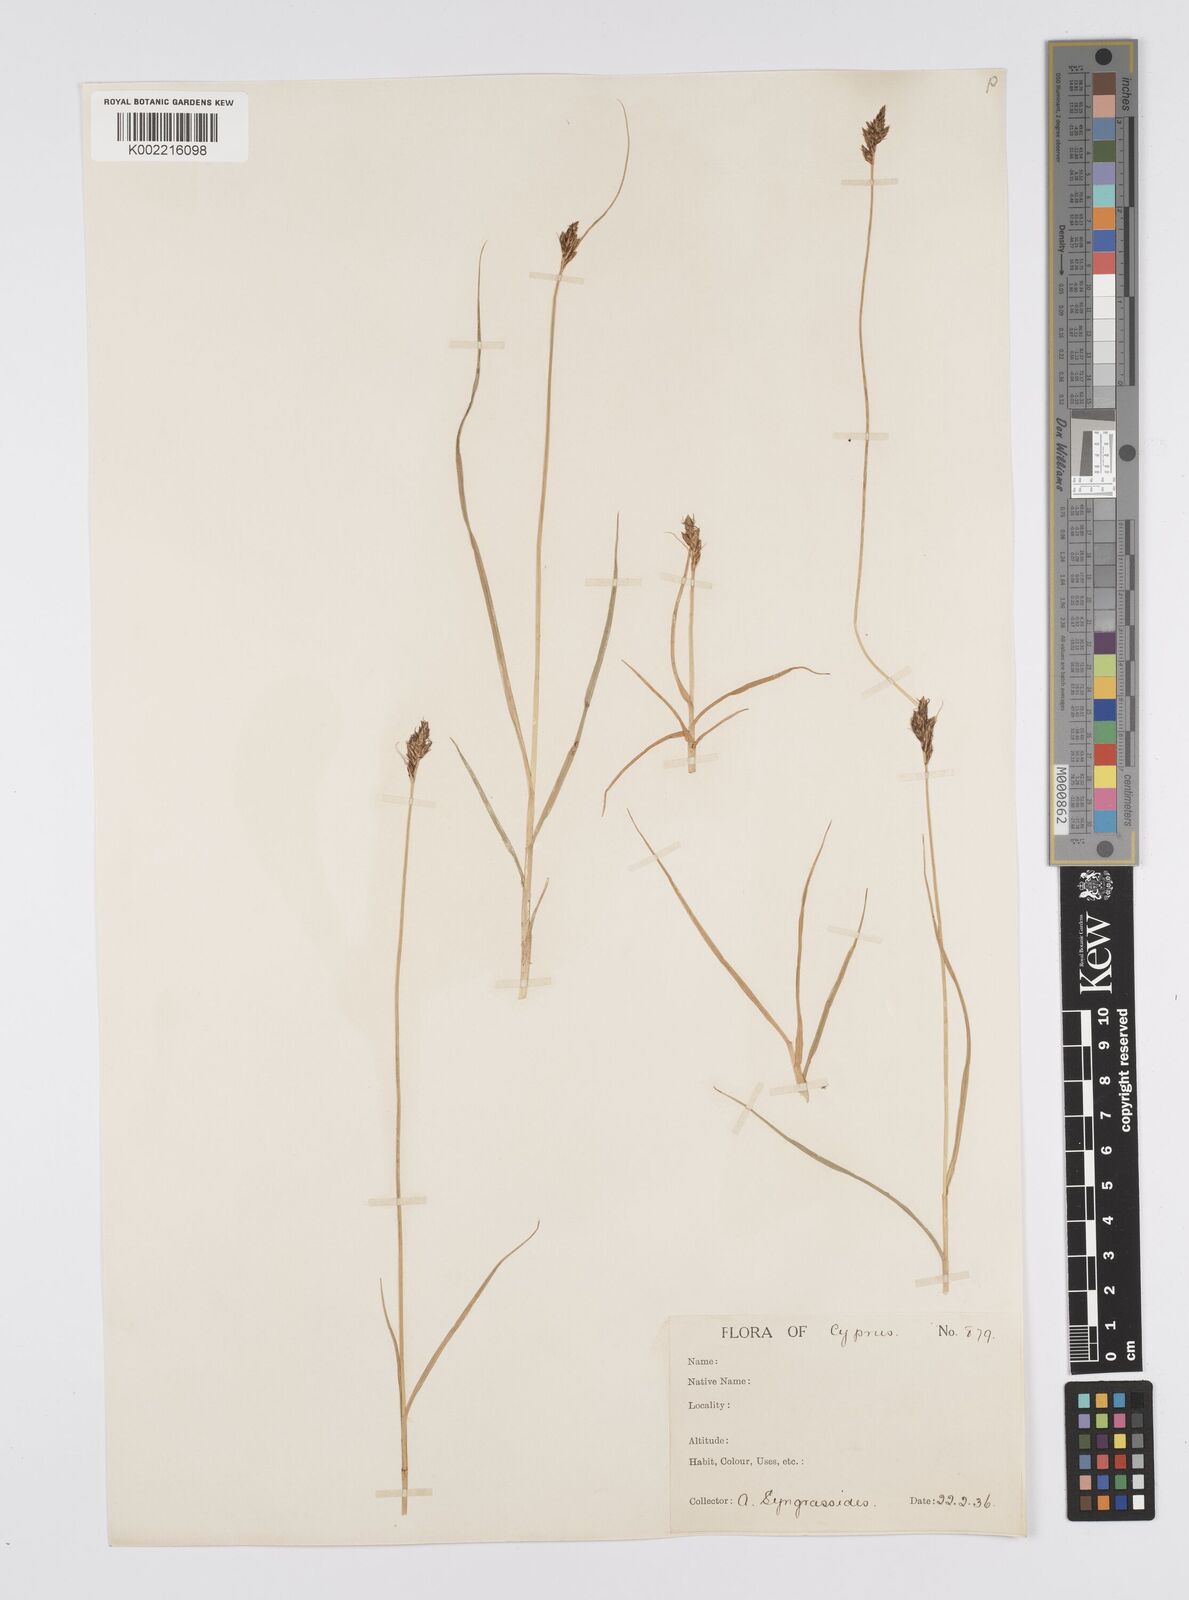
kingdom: Plantae
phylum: Tracheophyta
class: Liliopsida
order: Poales
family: Cyperaceae
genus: Carex
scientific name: Carex divisa
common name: Divided sedge
